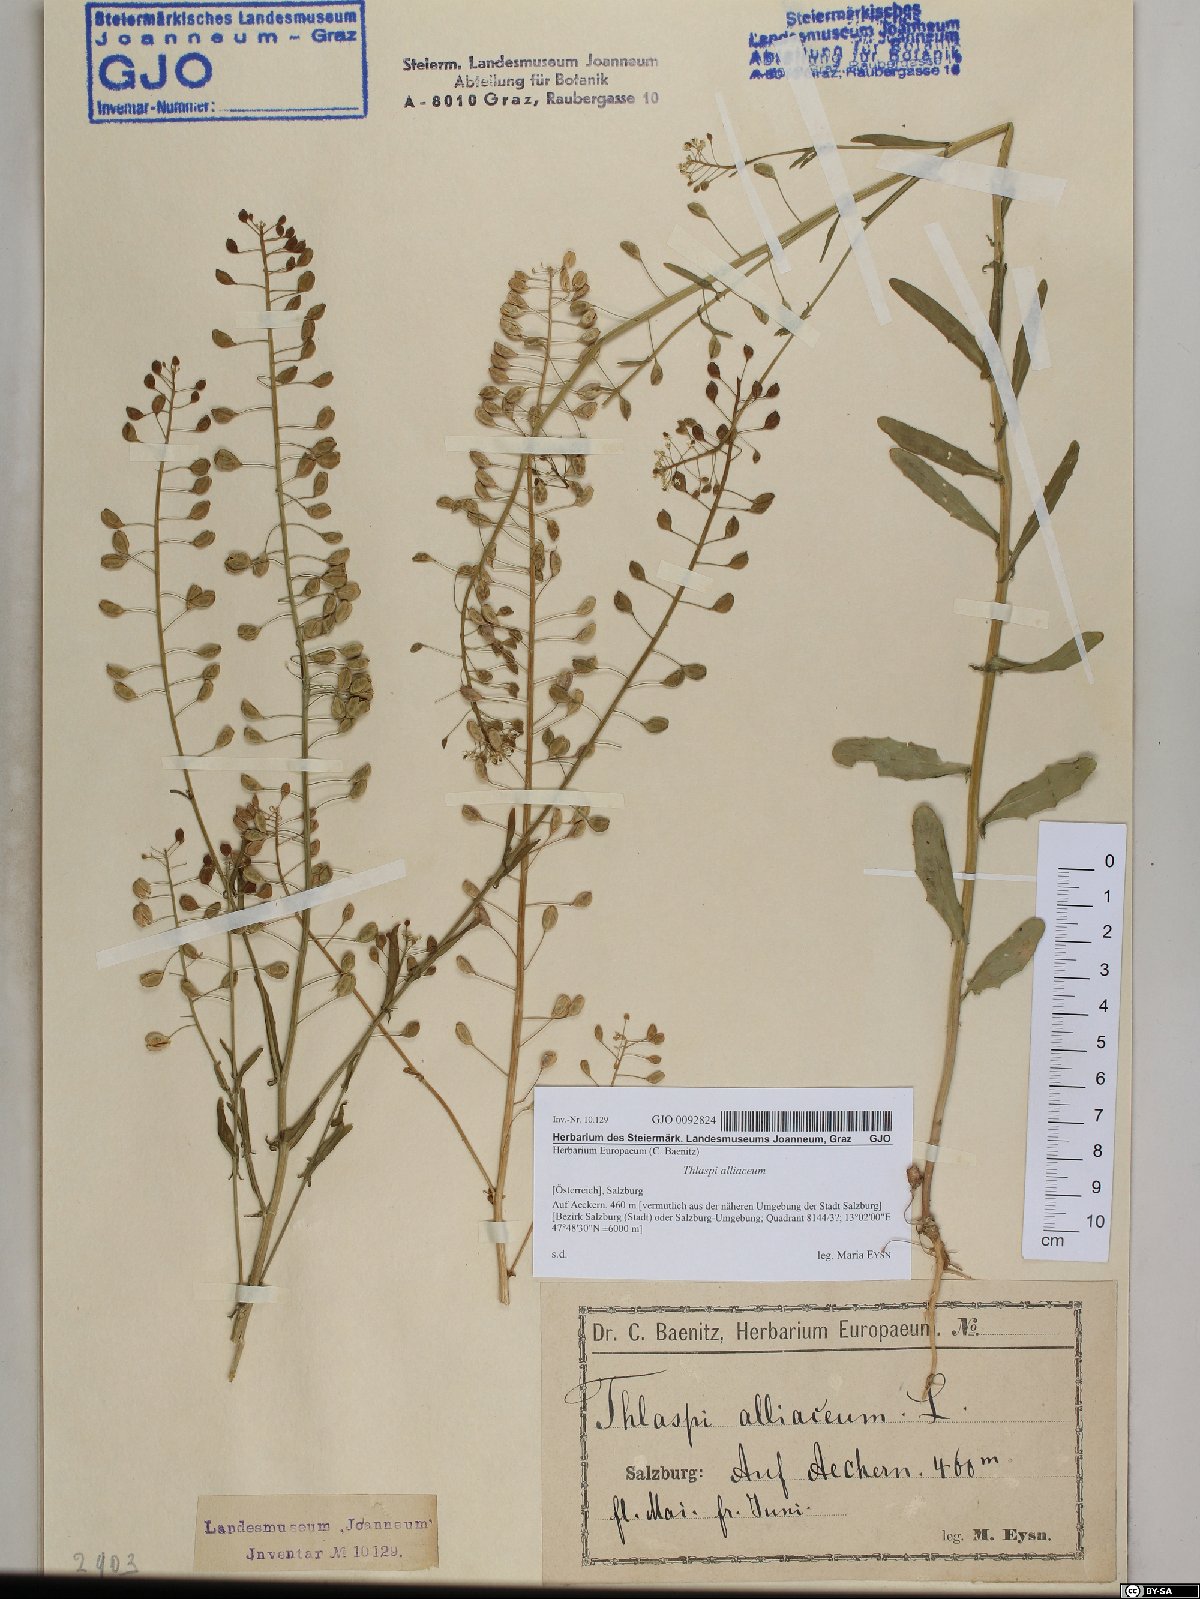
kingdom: Plantae
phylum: Tracheophyta
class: Magnoliopsida
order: Brassicales
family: Brassicaceae
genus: Mummenhoffia
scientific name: Mummenhoffia alliacea
